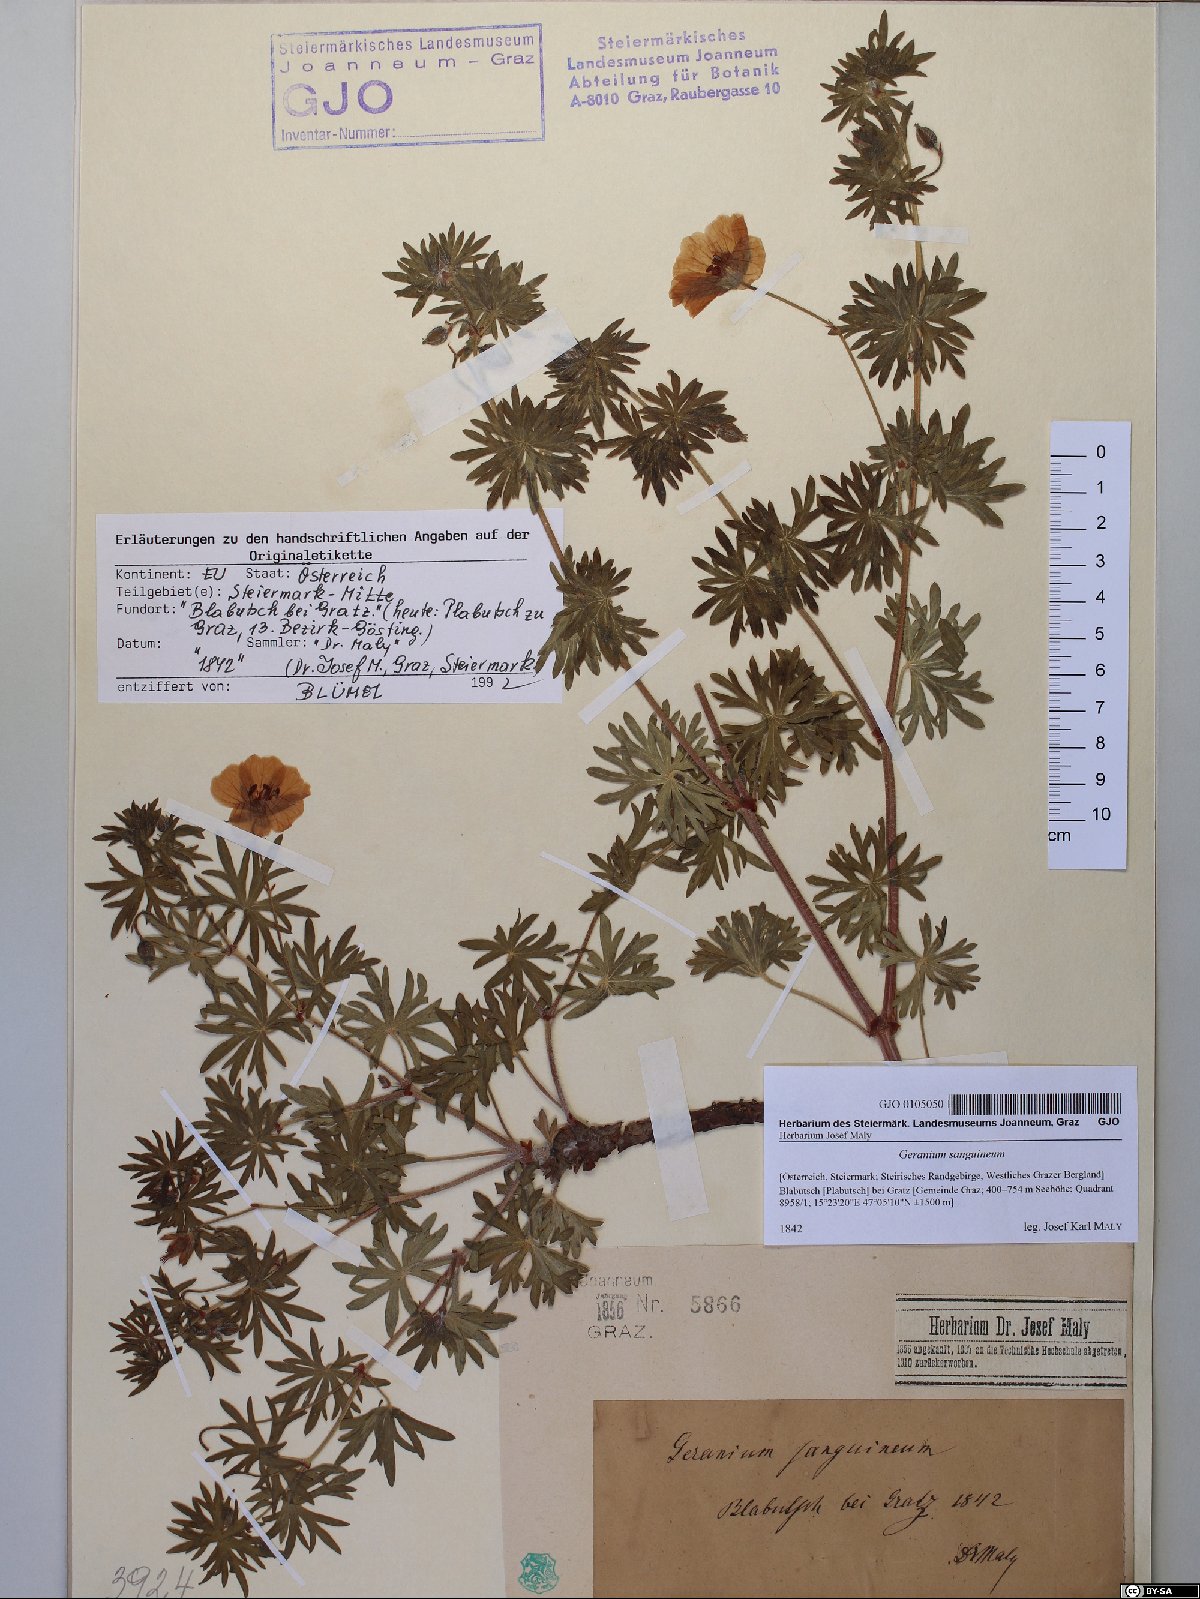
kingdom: Plantae
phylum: Tracheophyta
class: Magnoliopsida
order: Geraniales
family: Geraniaceae
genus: Geranium
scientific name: Geranium sanguineum
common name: Bloody crane's-bill
